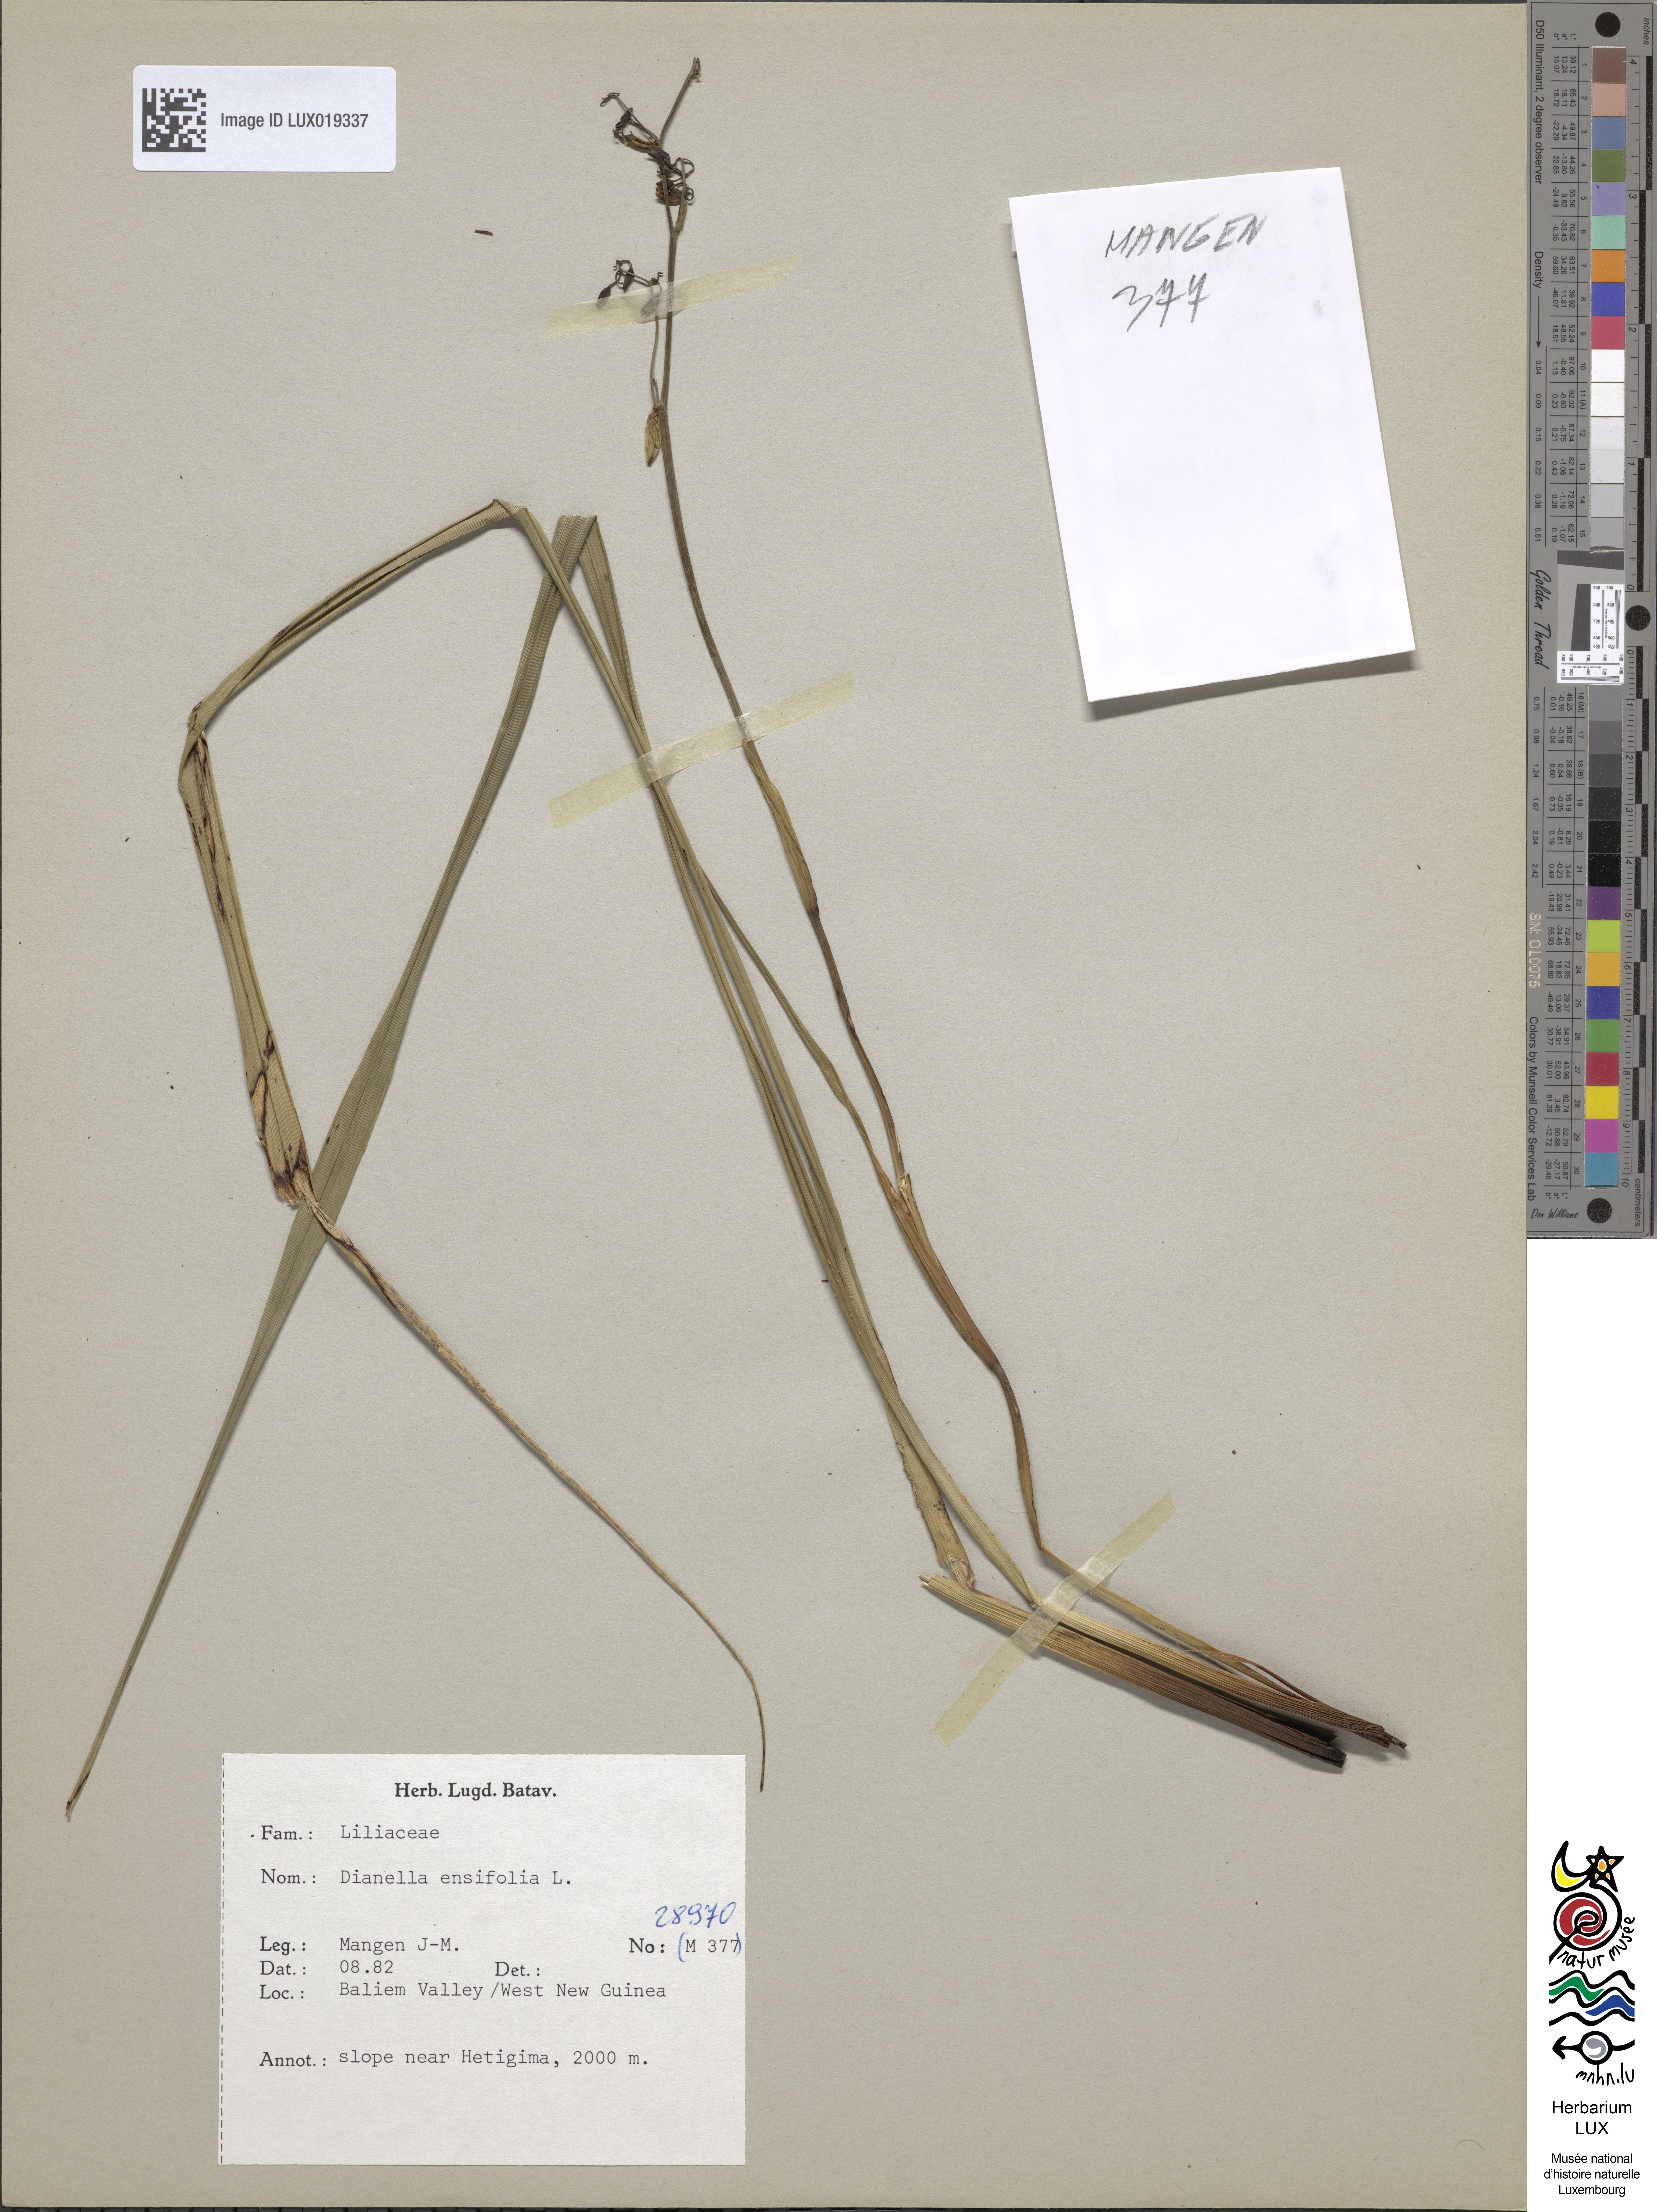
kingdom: Plantae
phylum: Tracheophyta
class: Liliopsida
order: Asparagales
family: Asphodelaceae
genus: Dianella
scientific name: Dianella ensifolia
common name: New zealand lilyplant
